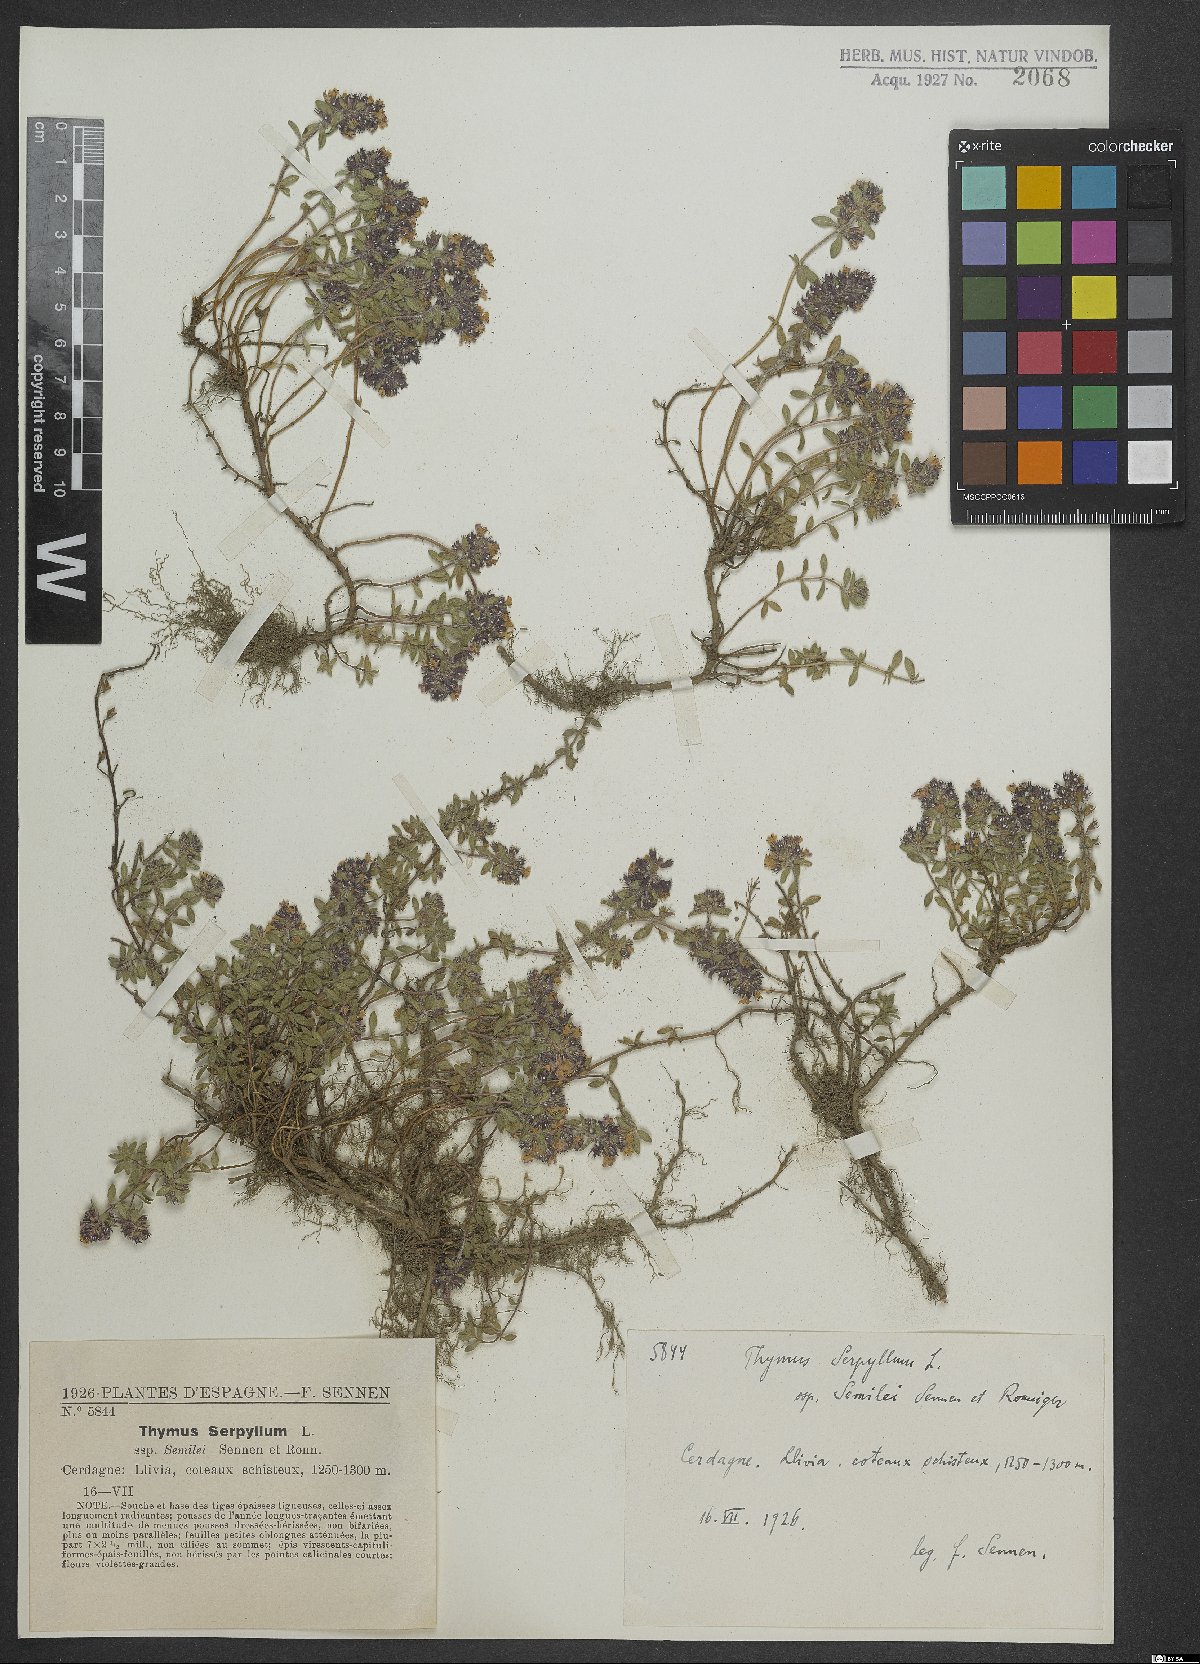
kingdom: Plantae
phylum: Tracheophyta
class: Magnoliopsida
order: Lamiales
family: Lamiaceae
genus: Thymus
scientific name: Thymus serpyllum
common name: Breckland thyme
